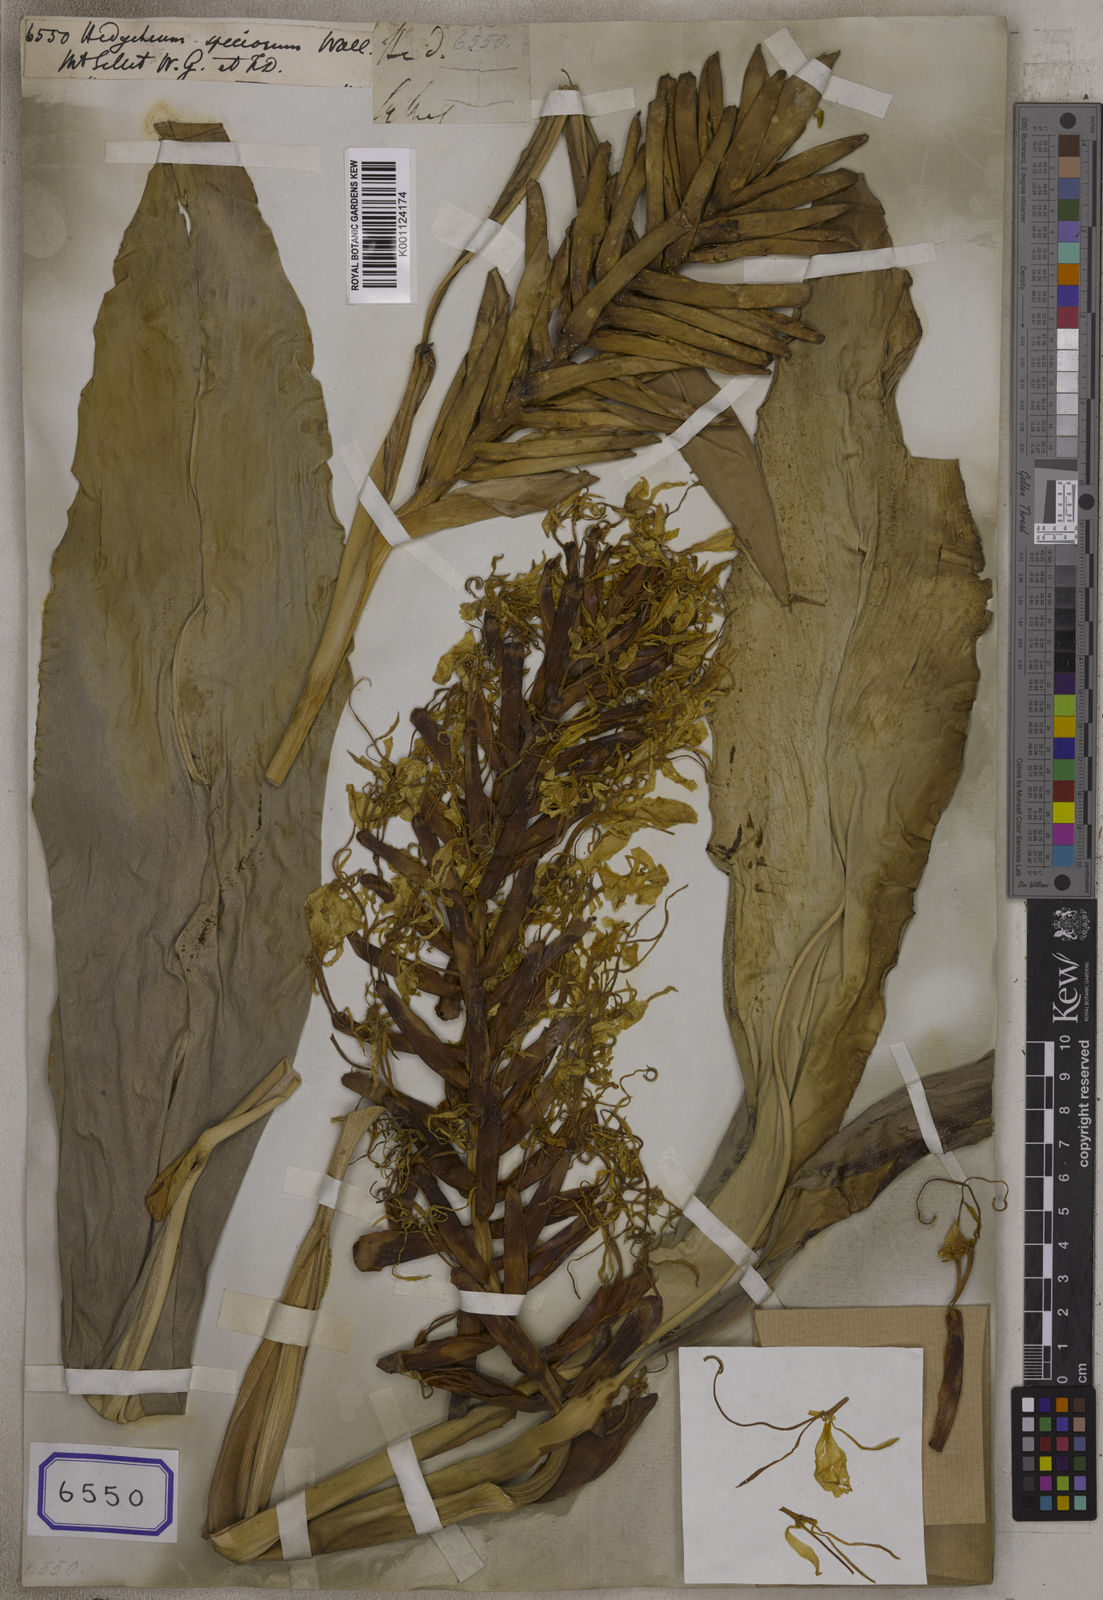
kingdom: Plantae
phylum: Tracheophyta
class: Liliopsida
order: Zingiberales
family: Zingiberaceae
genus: Hedychium
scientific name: Hedychium speciosum
